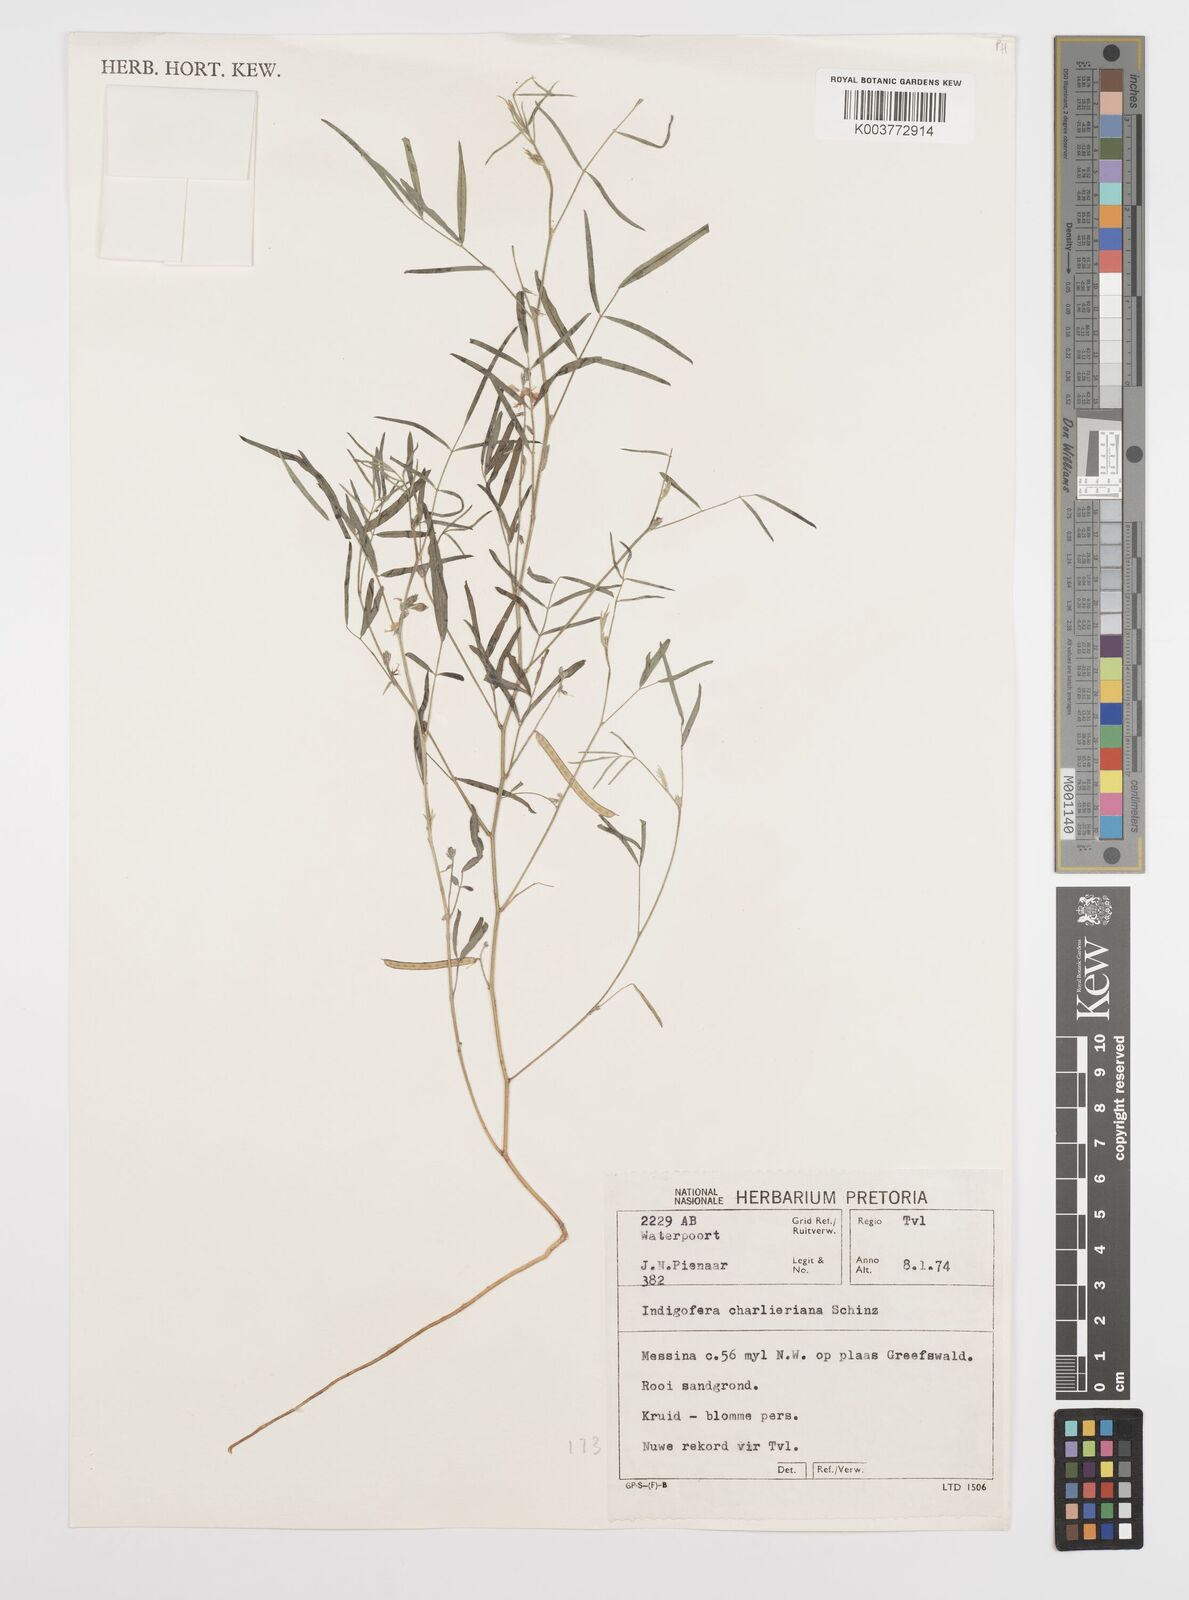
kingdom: Plantae
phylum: Tracheophyta
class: Magnoliopsida
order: Fabales
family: Fabaceae
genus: Indigofera
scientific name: Indigofera charlieriana
